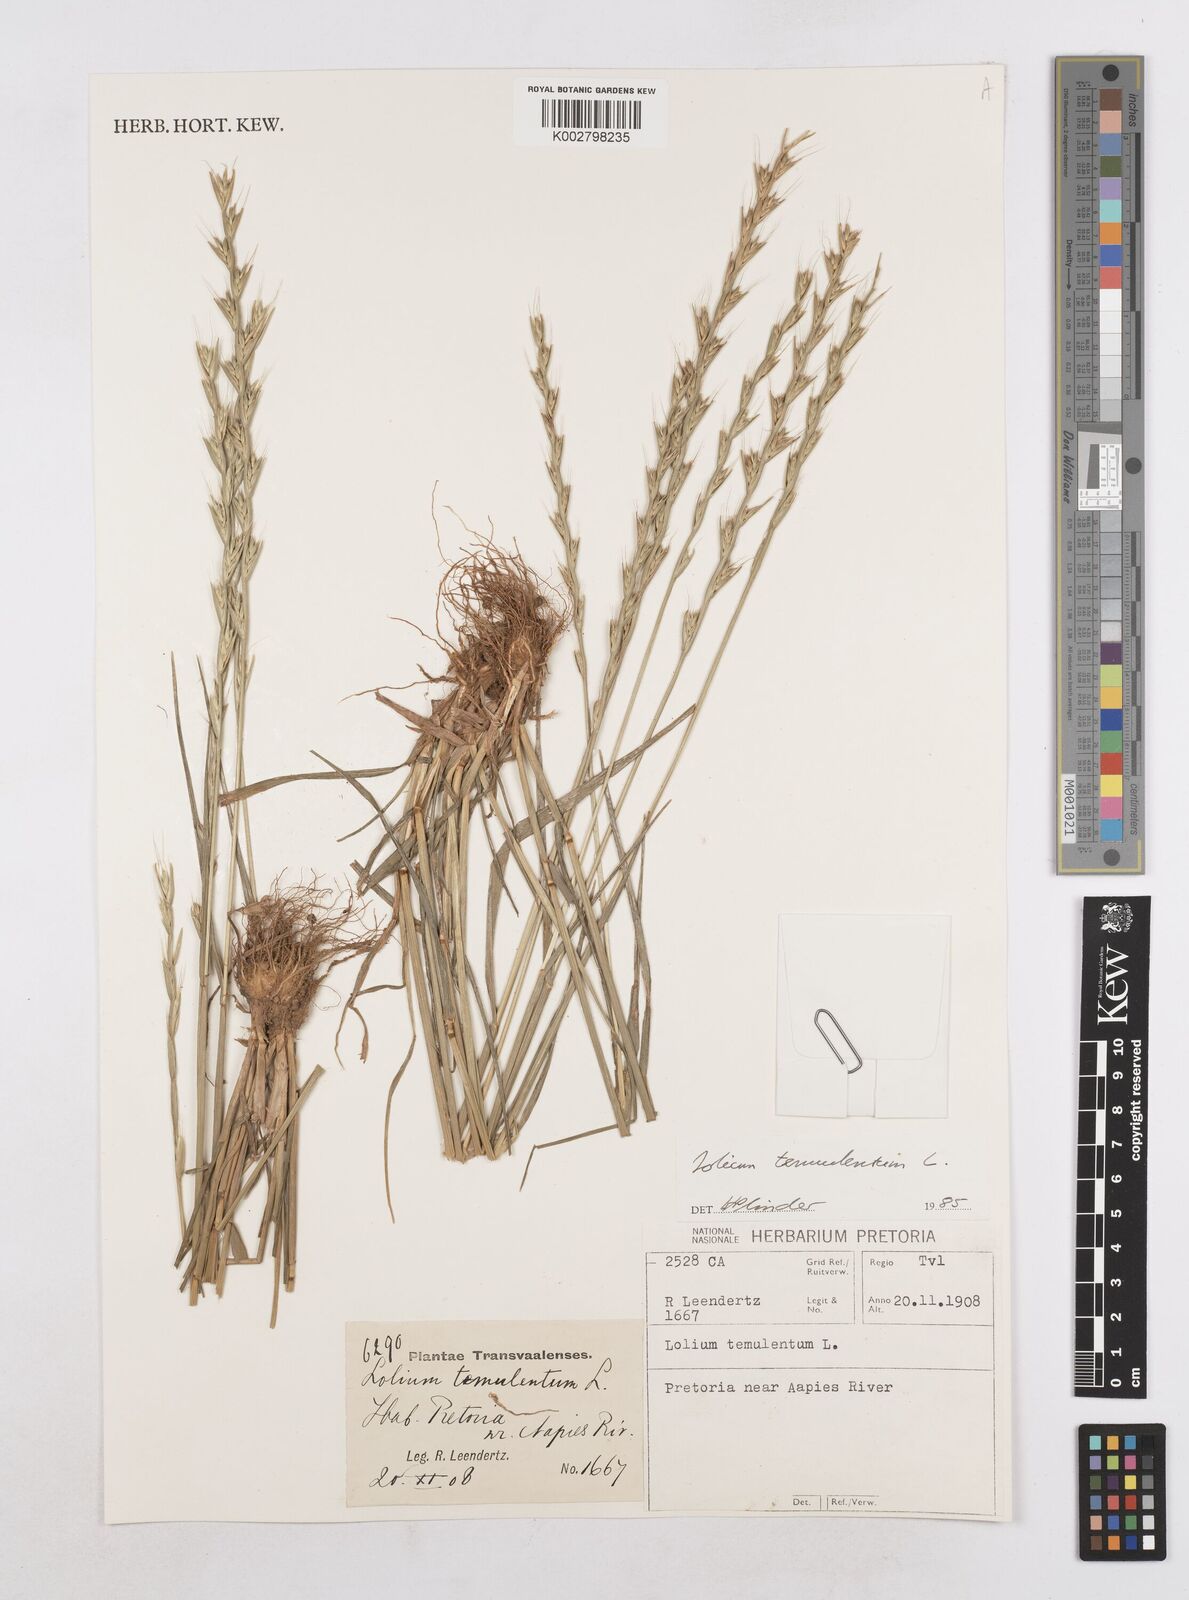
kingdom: Plantae
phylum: Tracheophyta
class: Liliopsida
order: Poales
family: Poaceae
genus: Lolium
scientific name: Lolium temulentum
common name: Darnel
